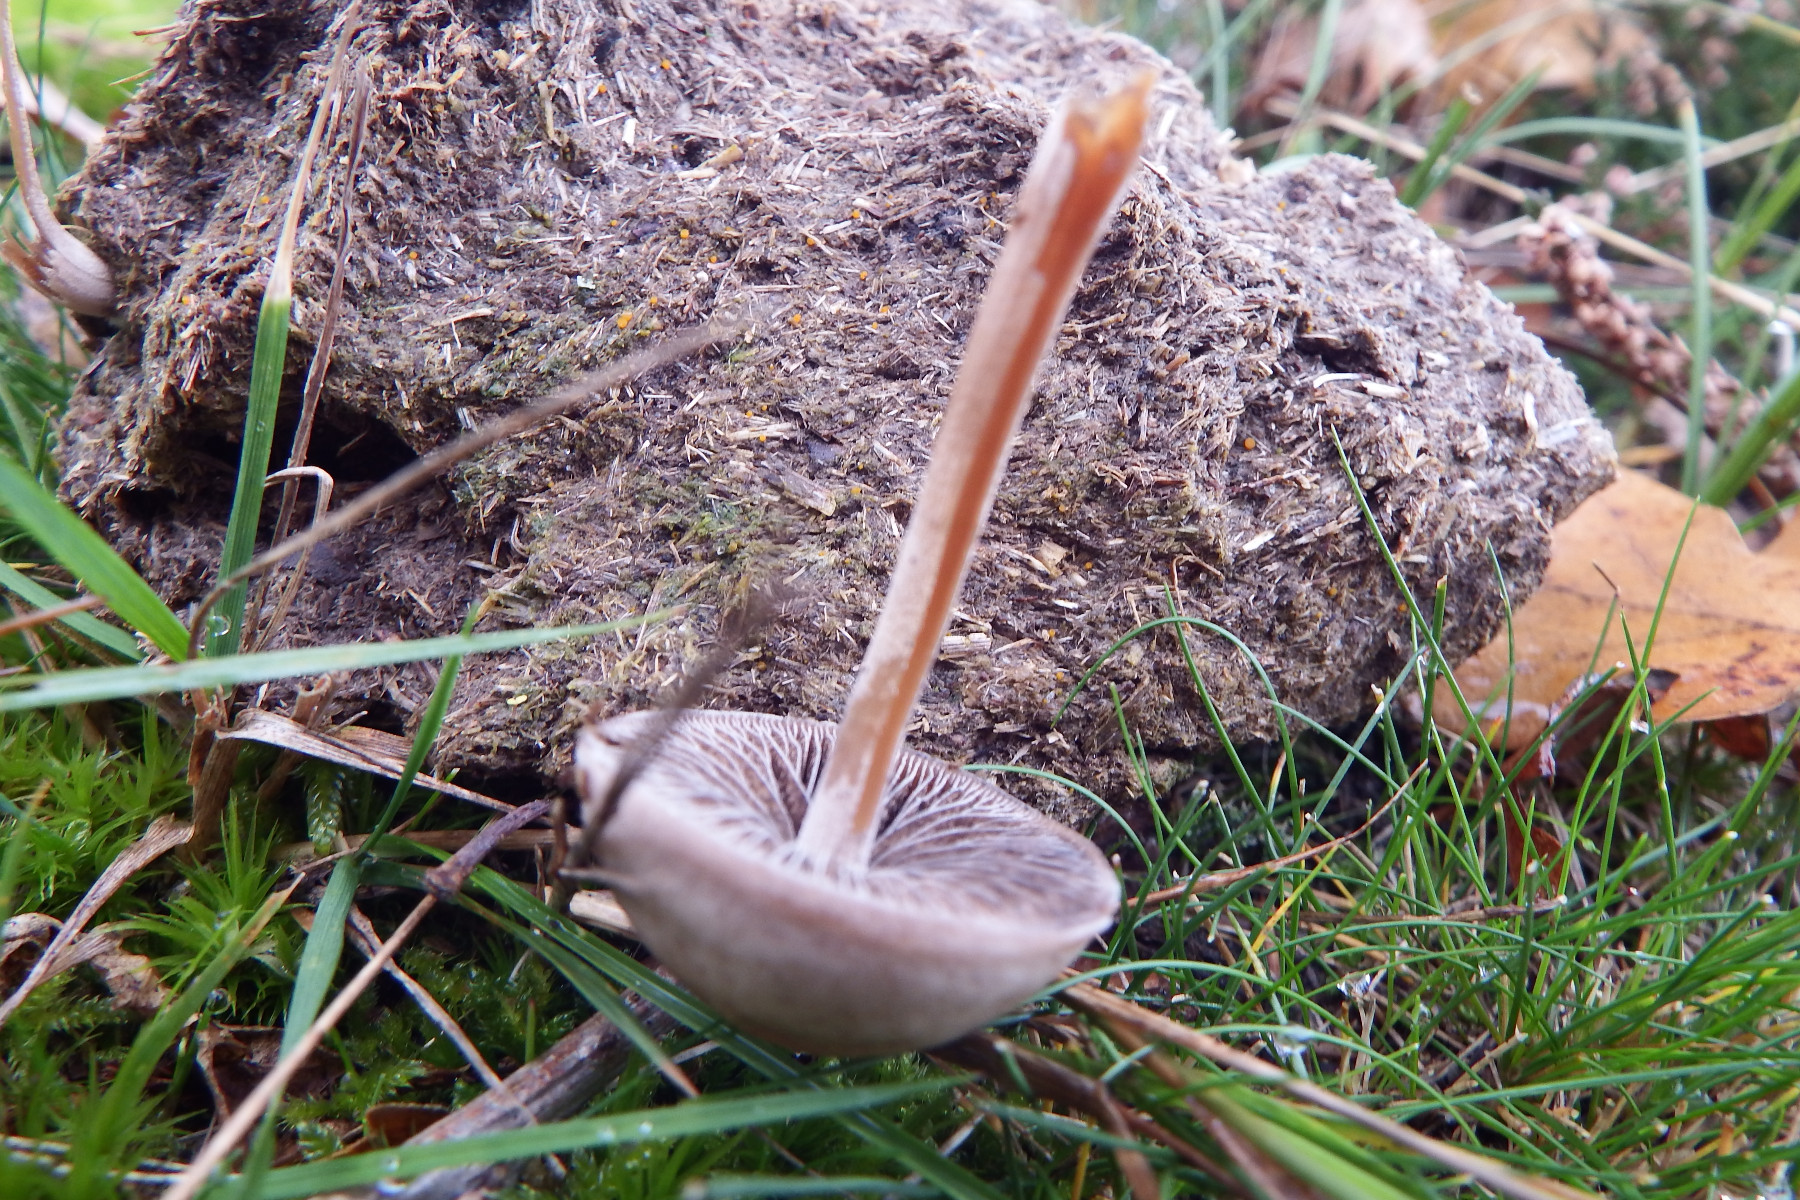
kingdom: Fungi
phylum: Basidiomycota
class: Agaricomycetes
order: Agaricales
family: Bolbitiaceae
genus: Panaeolus
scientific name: Panaeolus
